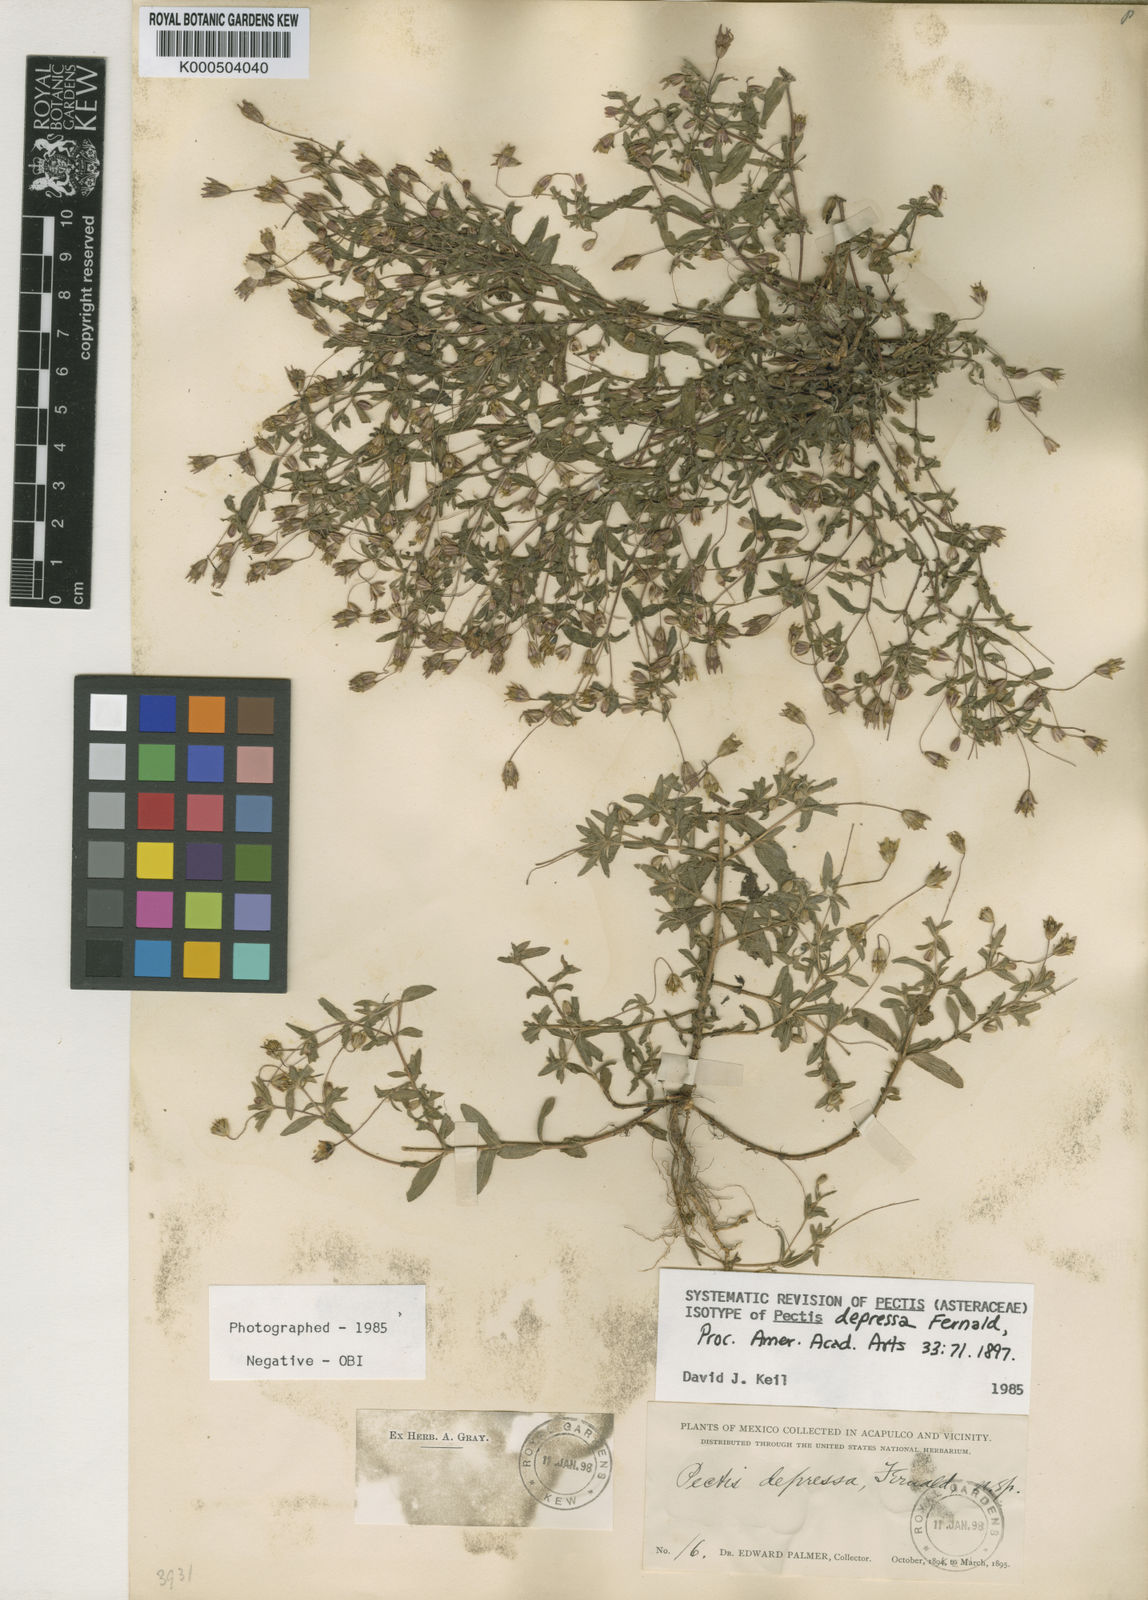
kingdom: Plantae
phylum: Tracheophyta
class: Magnoliopsida
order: Asterales
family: Asteraceae
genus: Pectis
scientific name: Pectis depressa
